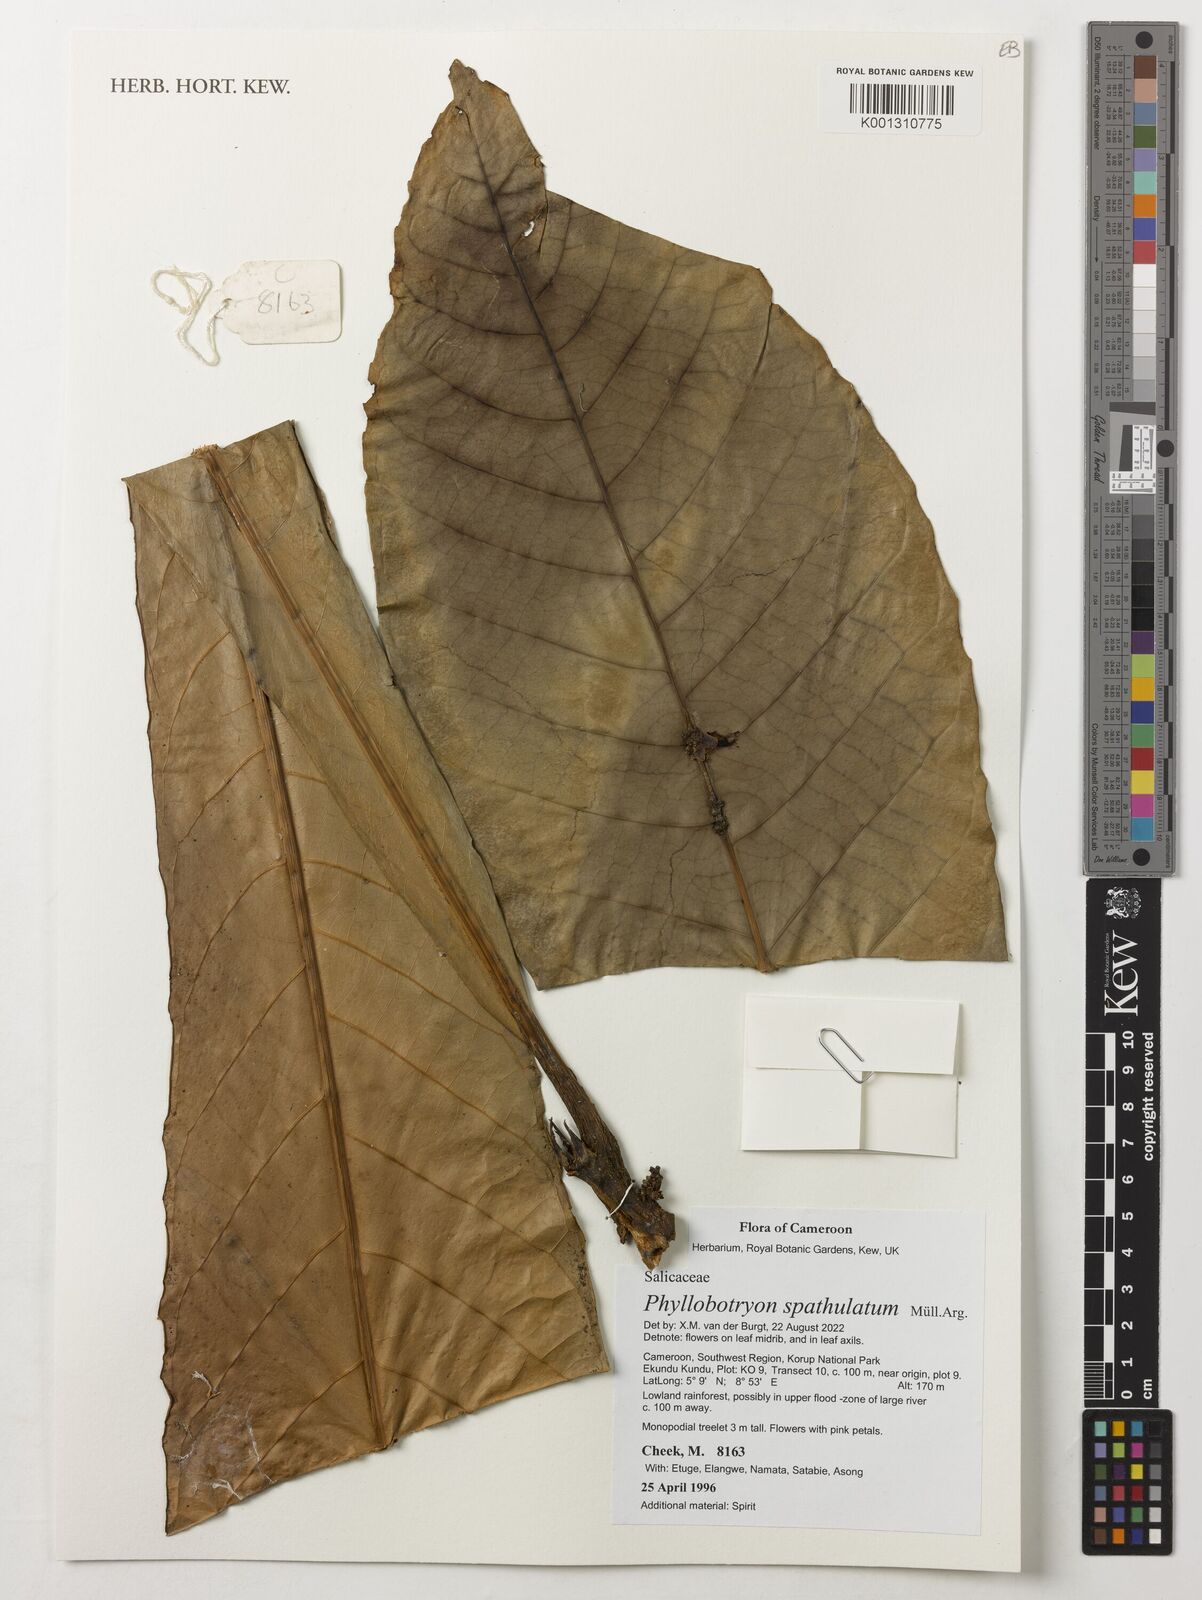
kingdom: Plantae
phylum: Tracheophyta
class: Magnoliopsida
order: Malpighiales
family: Salicaceae
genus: Phyllobotryon
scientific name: Phyllobotryon spathulatum
